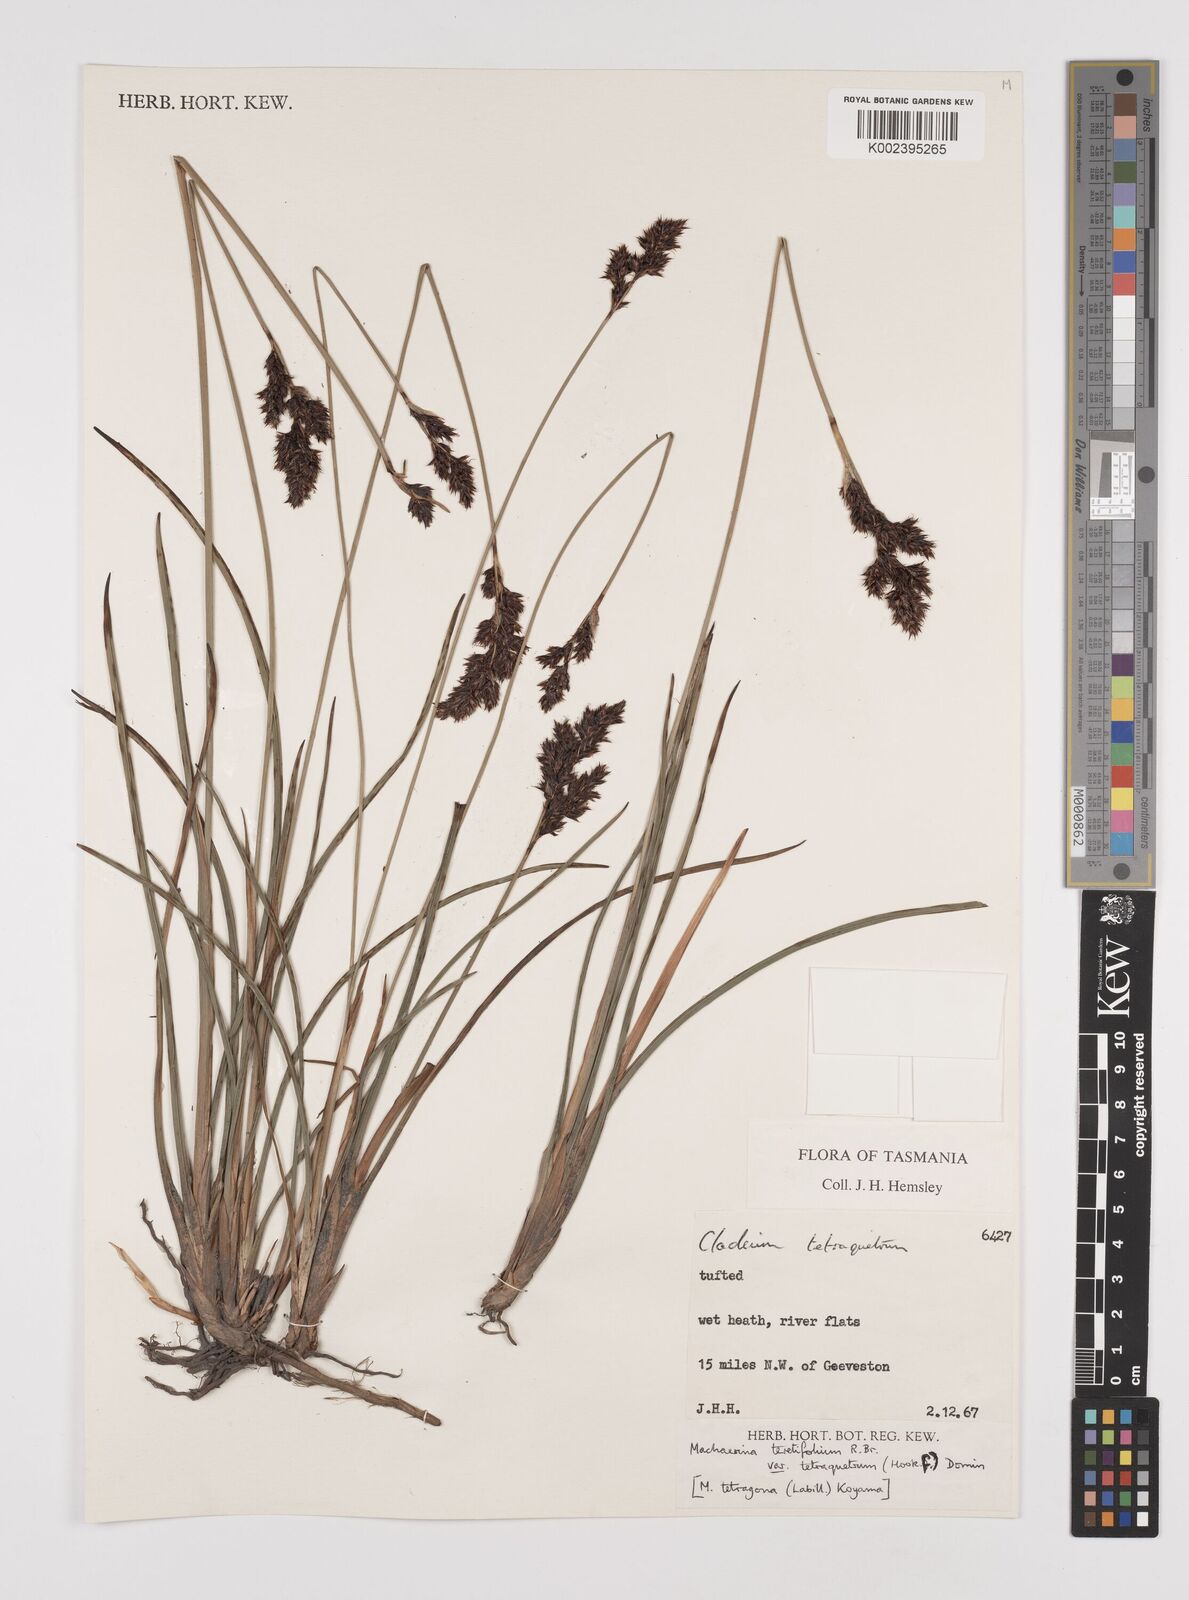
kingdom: Plantae
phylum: Tracheophyta
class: Liliopsida
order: Poales
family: Cyperaceae
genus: Machaerina
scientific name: Machaerina tetragona
